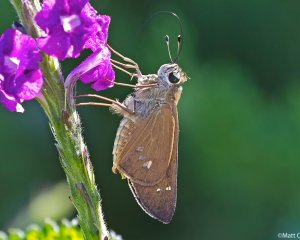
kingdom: Animalia
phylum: Arthropoda
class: Insecta
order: Lepidoptera
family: Hesperiidae
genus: Calpodes
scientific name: Calpodes ethlius
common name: Brazilian Skipper
